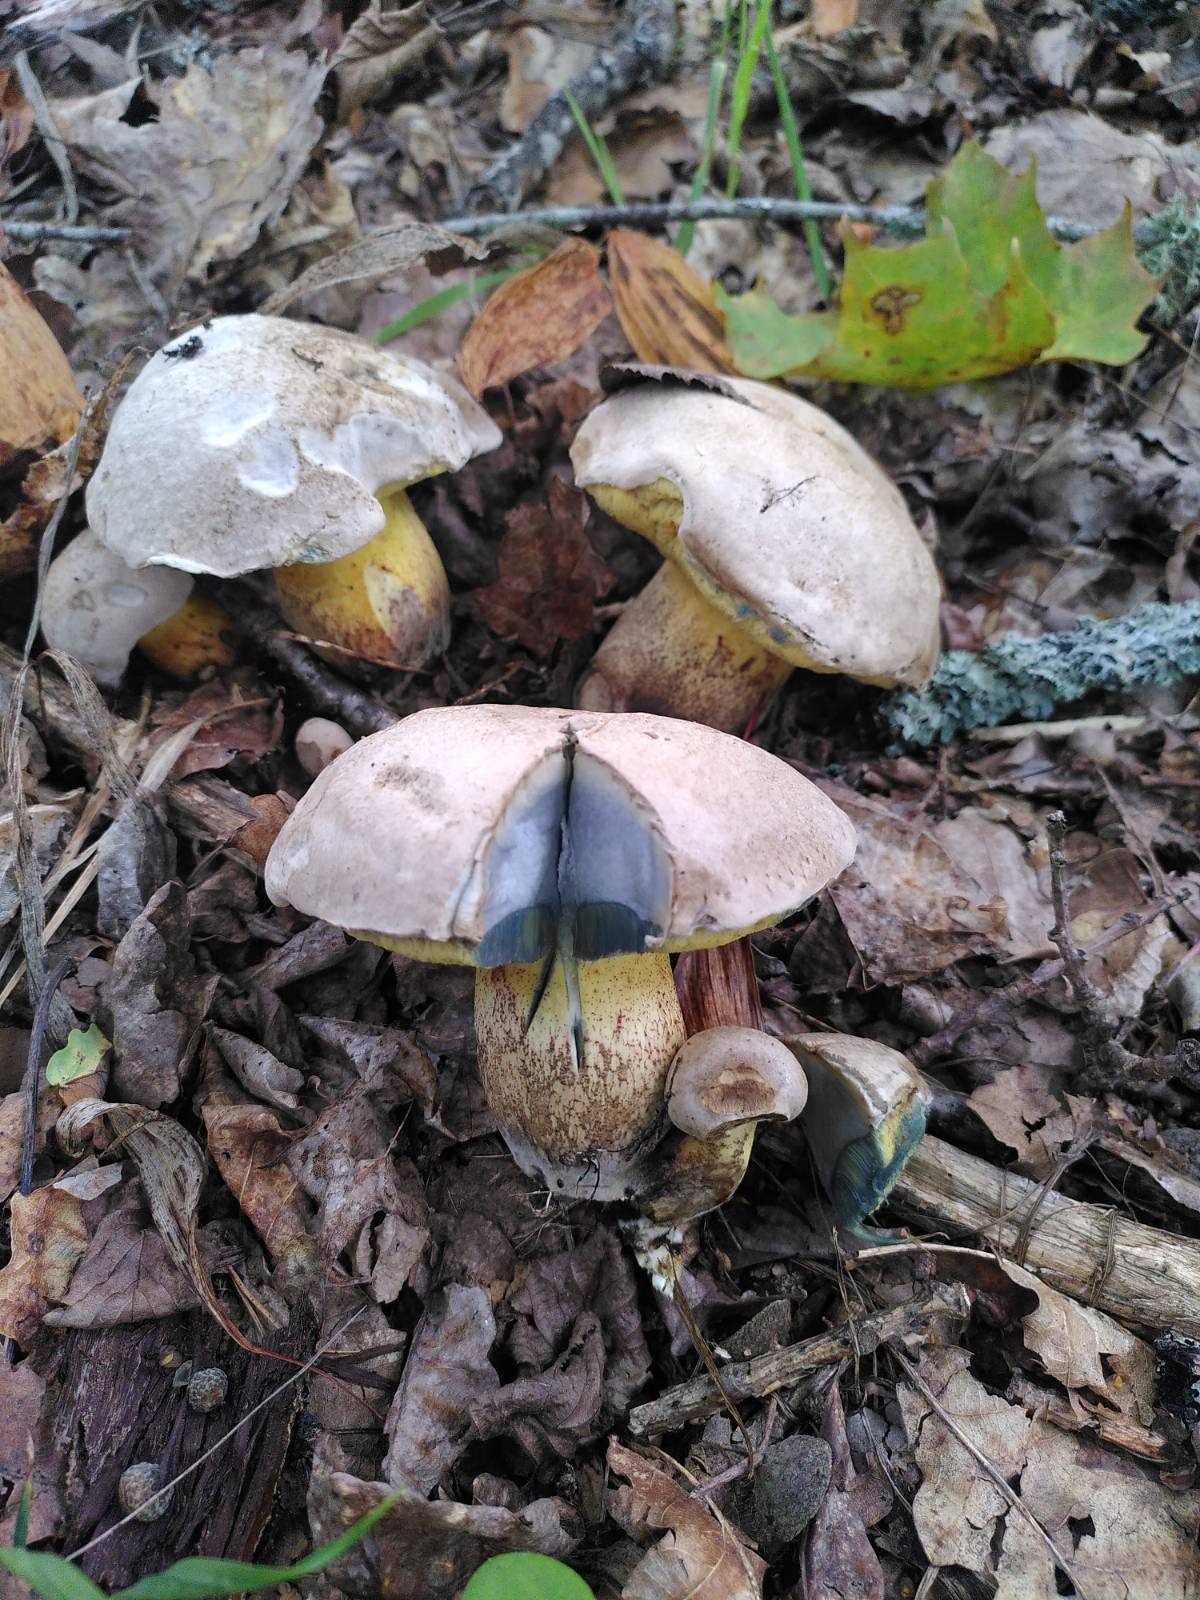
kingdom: Fungi
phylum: Basidiomycota
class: Agaricomycetes
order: Boletales
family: Boletaceae
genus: Caloboletus
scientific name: Caloboletus radicans
